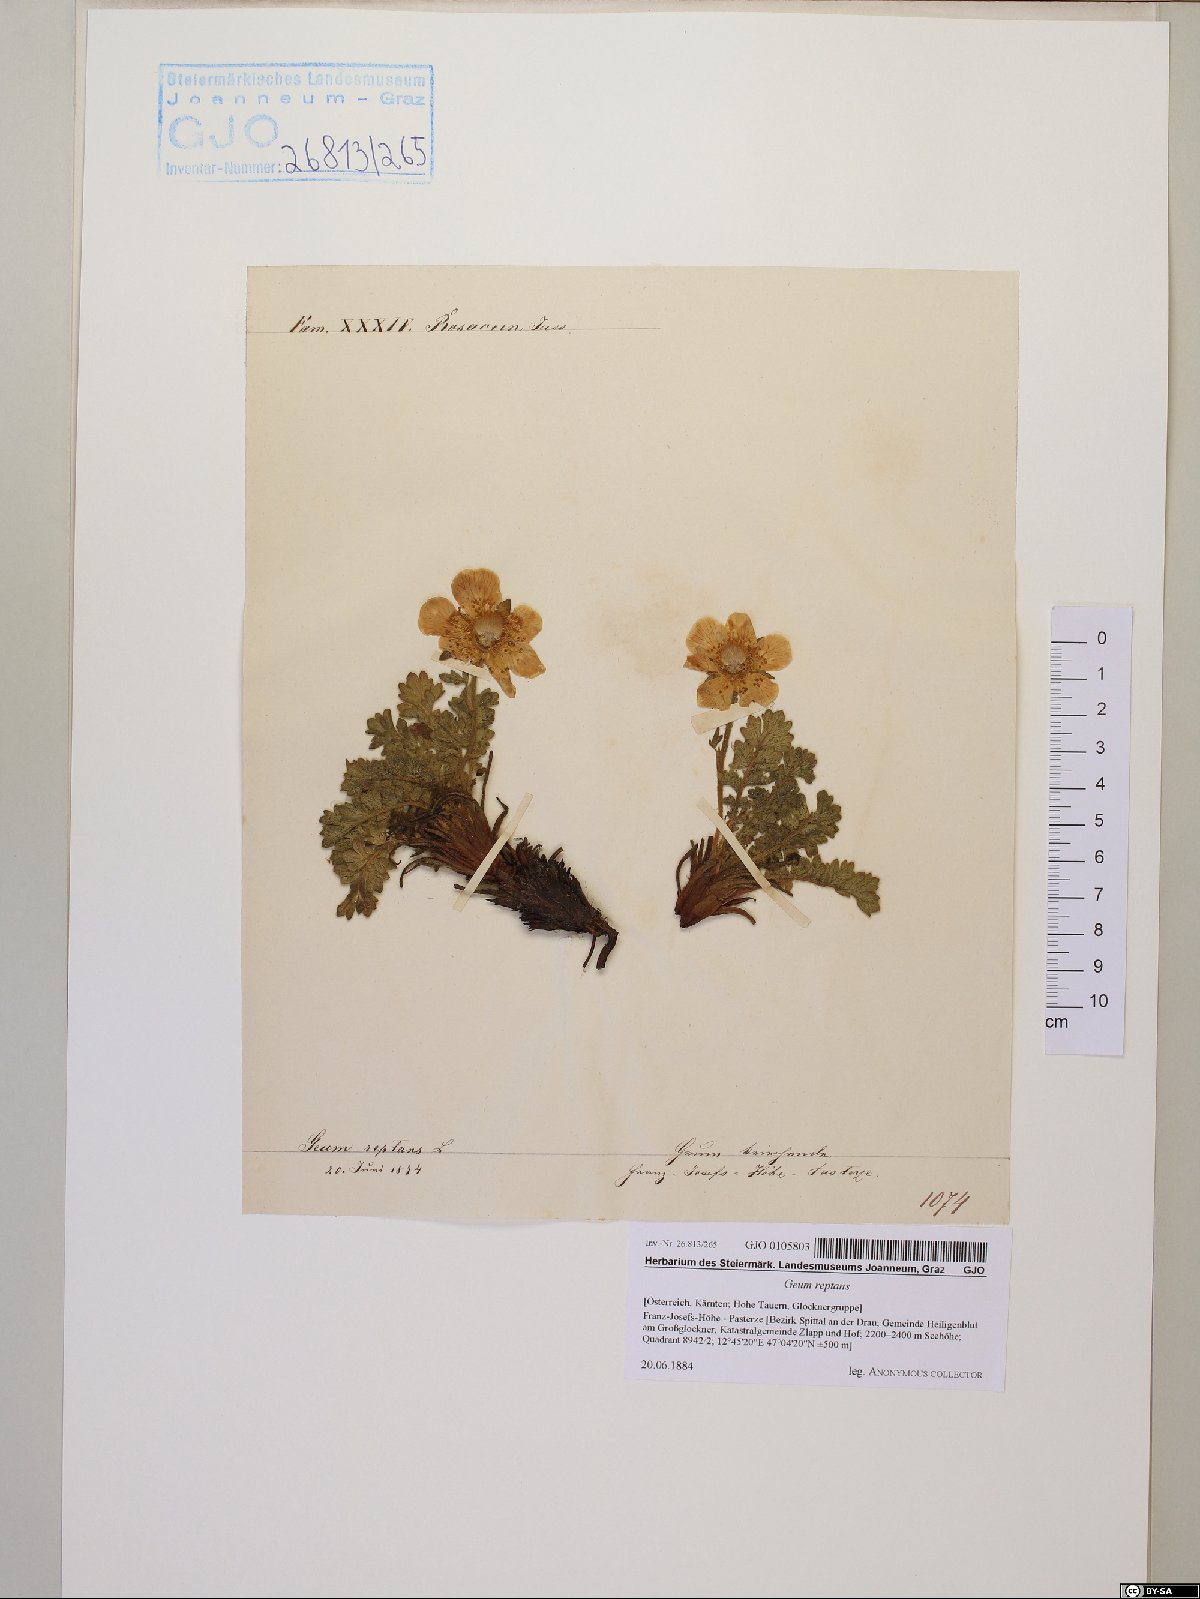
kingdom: Plantae
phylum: Tracheophyta
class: Magnoliopsida
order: Rosales
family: Rosaceae
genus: Geum
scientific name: Geum reptans
